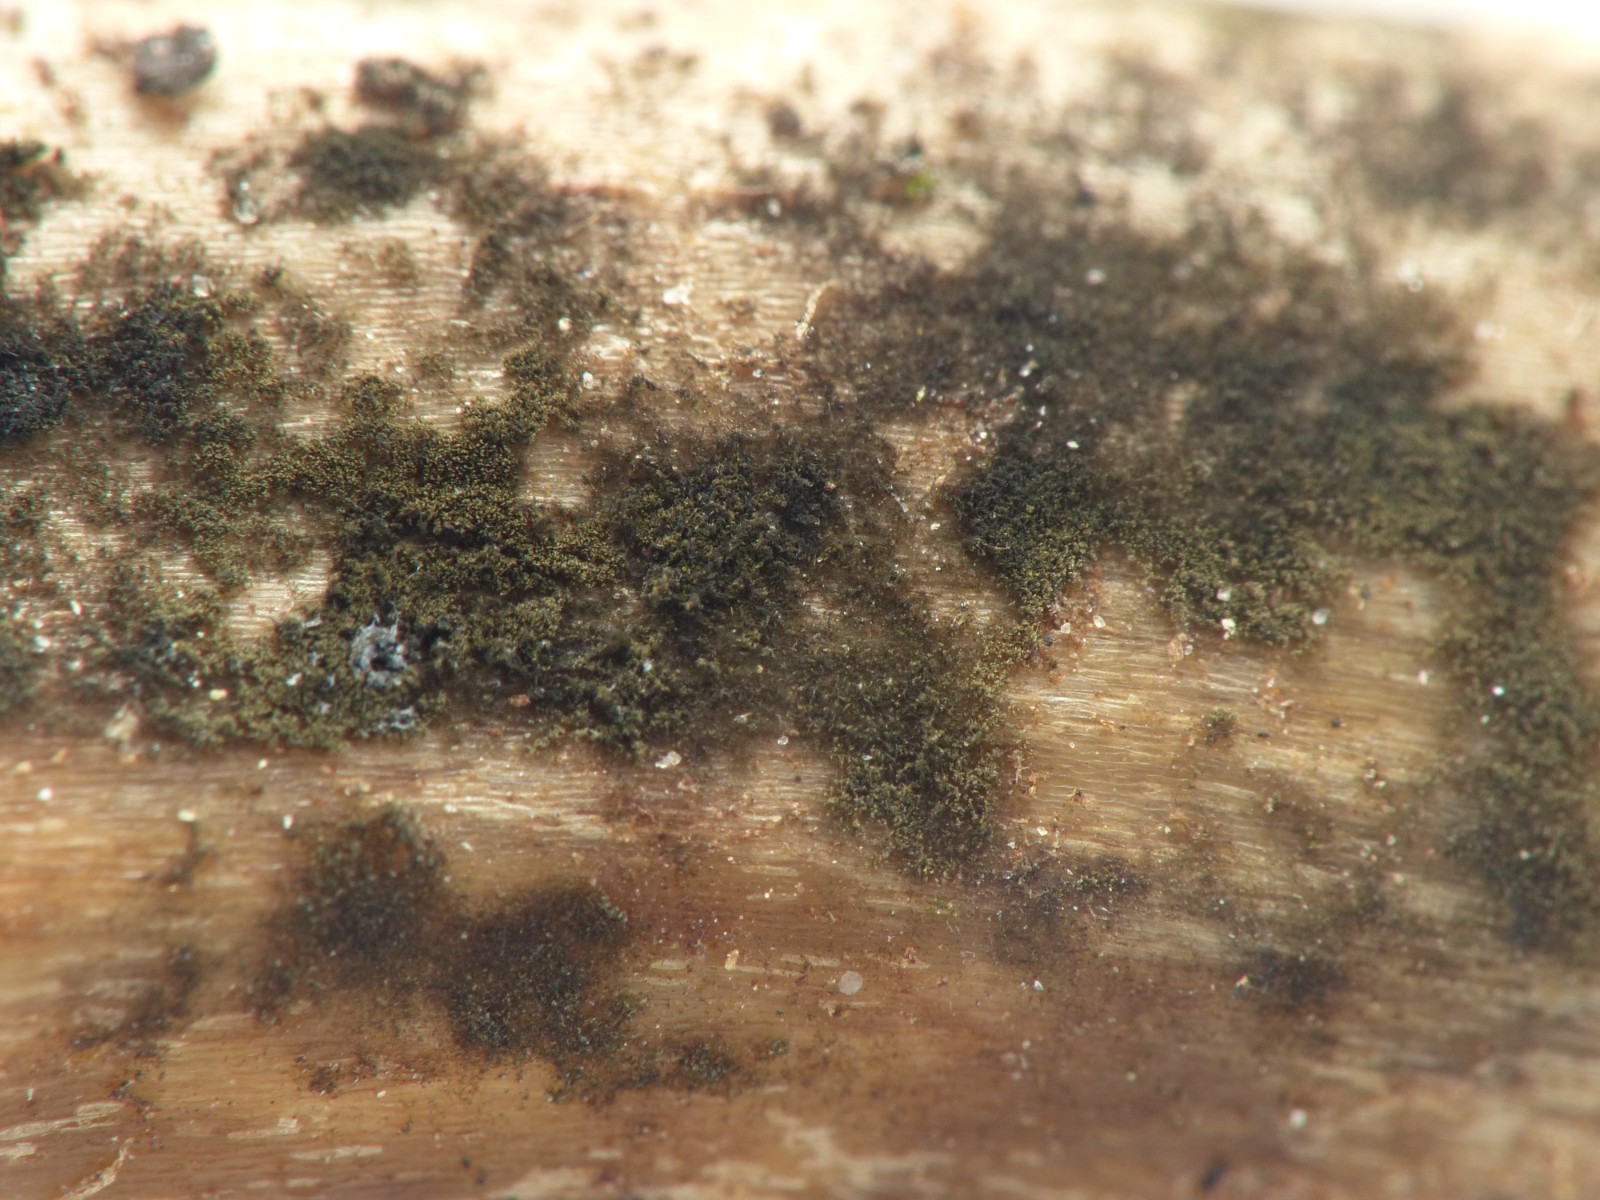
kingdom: Fungi
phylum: Ascomycota
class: Dothideomycetes
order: Pleosporales
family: Torulaceae
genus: Torula
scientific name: Torula herbarum
